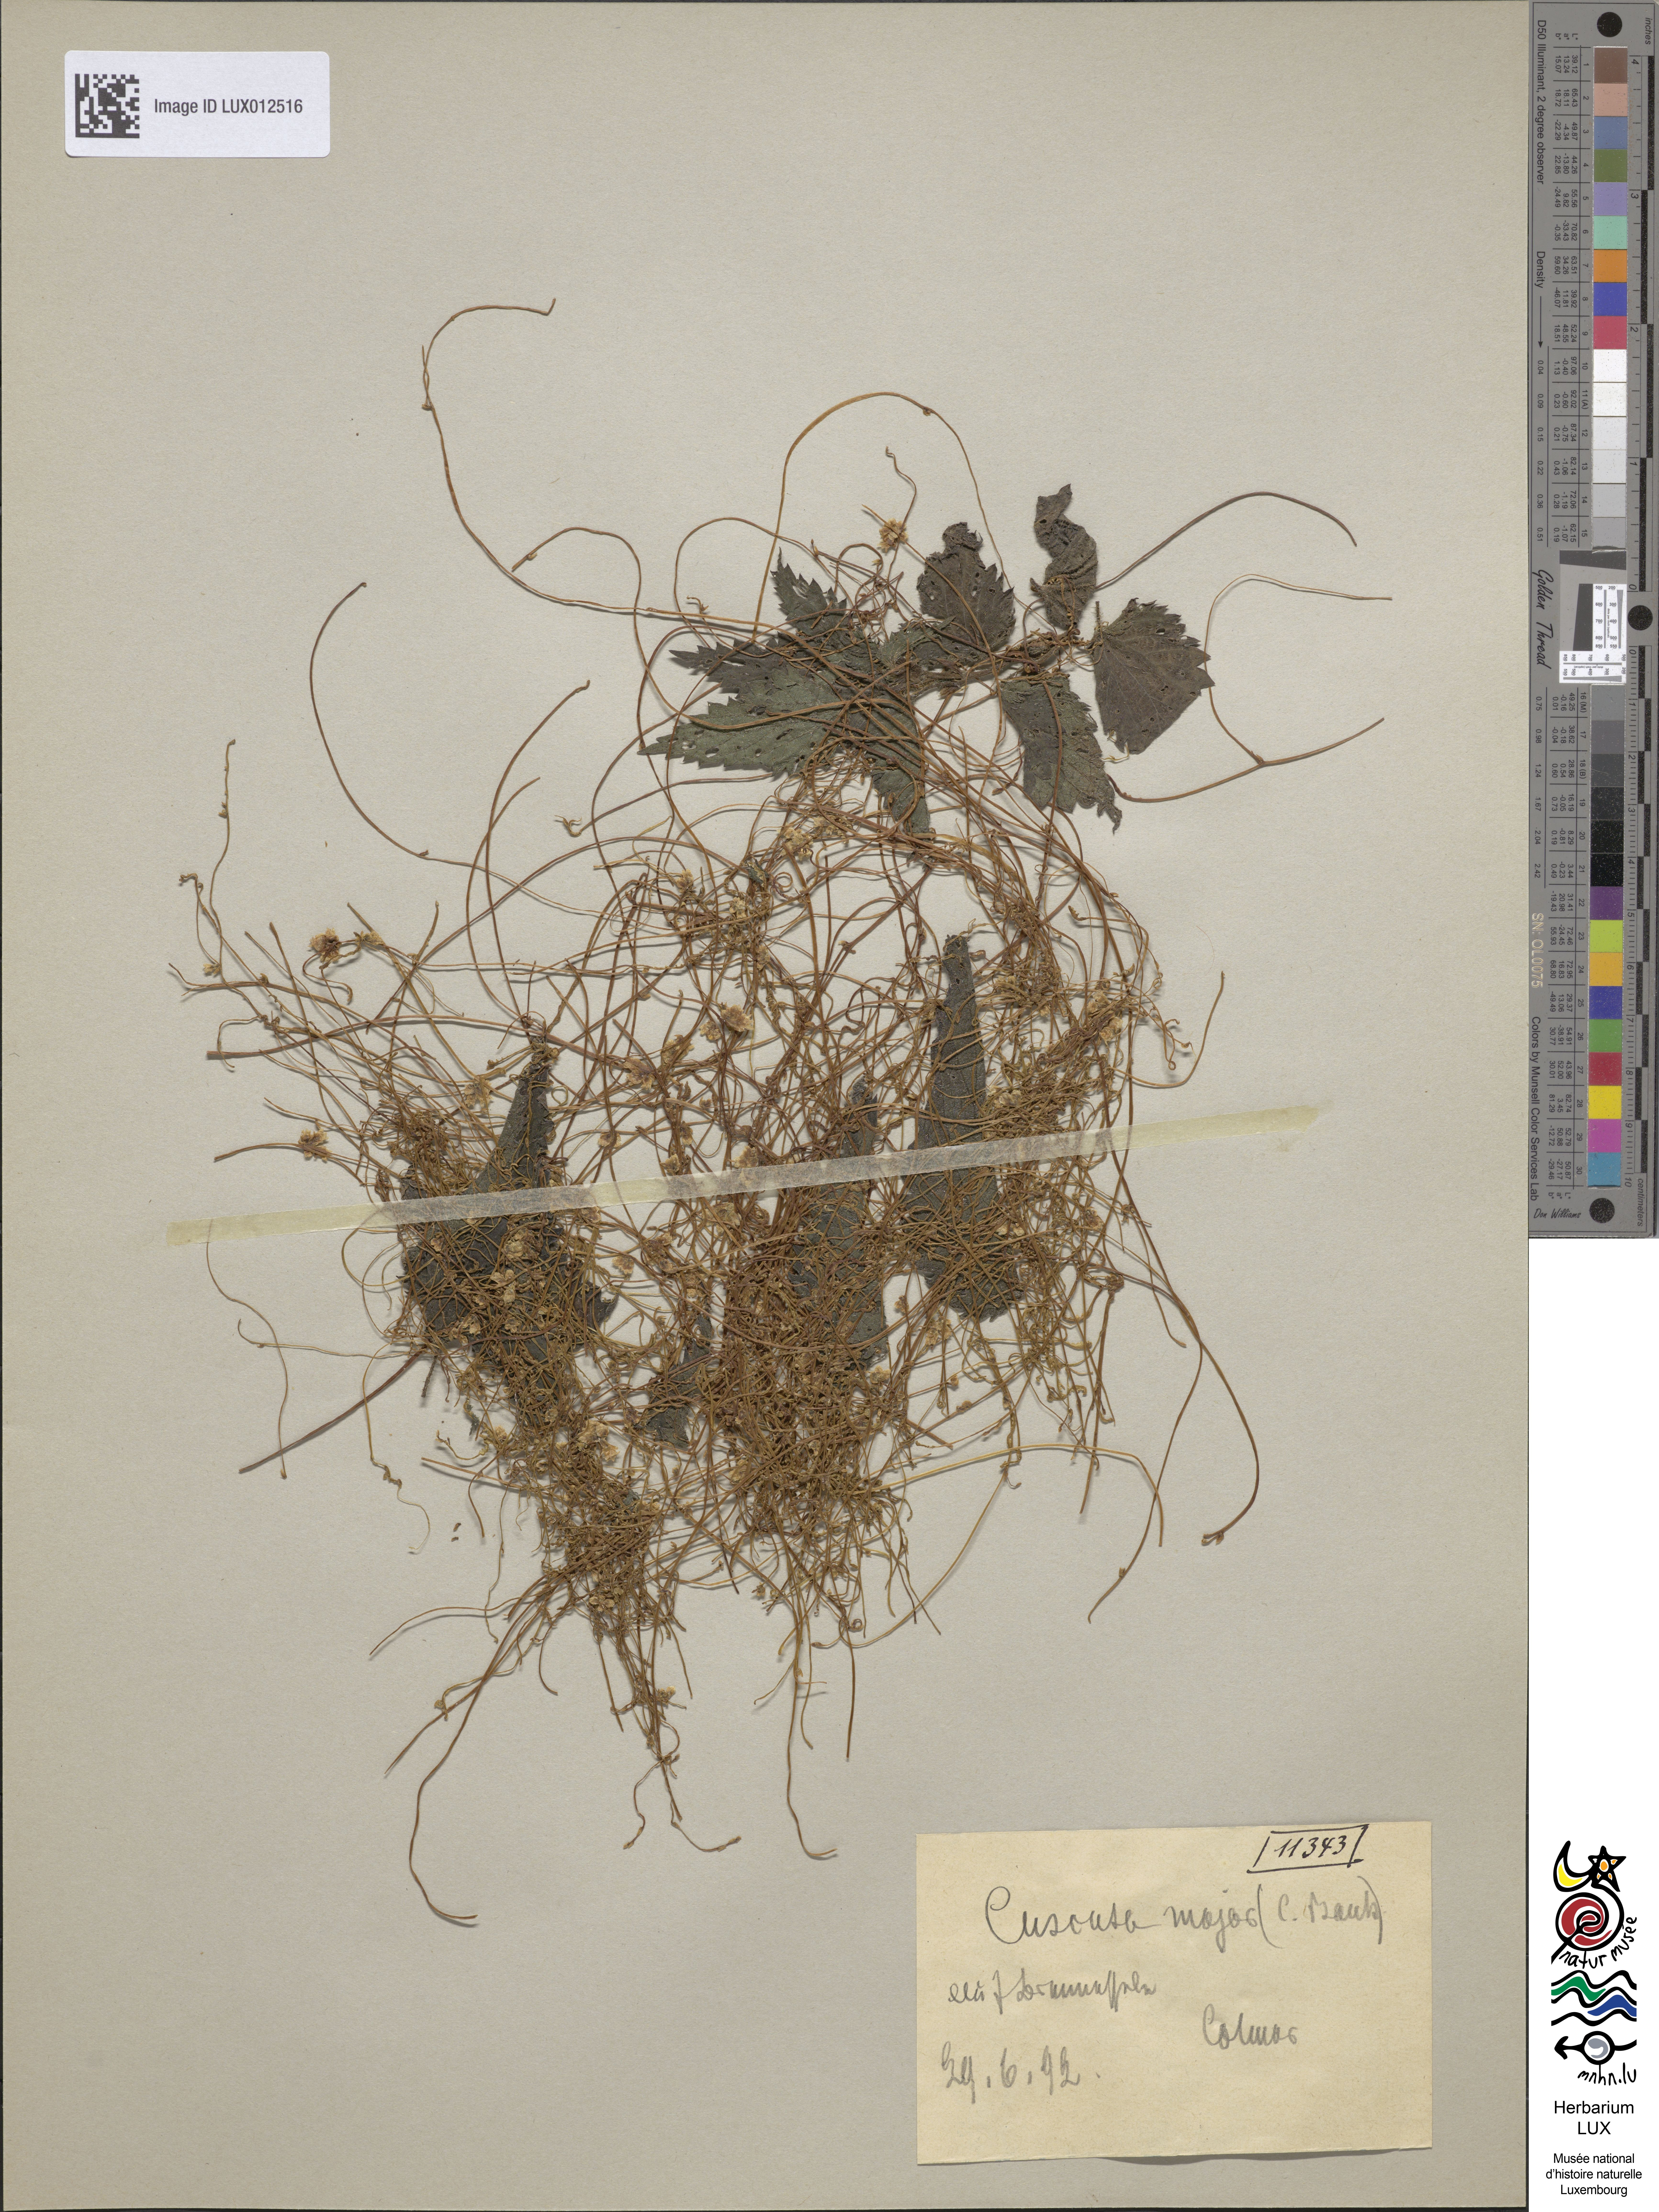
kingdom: Plantae
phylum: Tracheophyta
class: Magnoliopsida
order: Solanales
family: Convolvulaceae
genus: Cuscuta
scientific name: Cuscuta europaea
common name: Greater dodder
